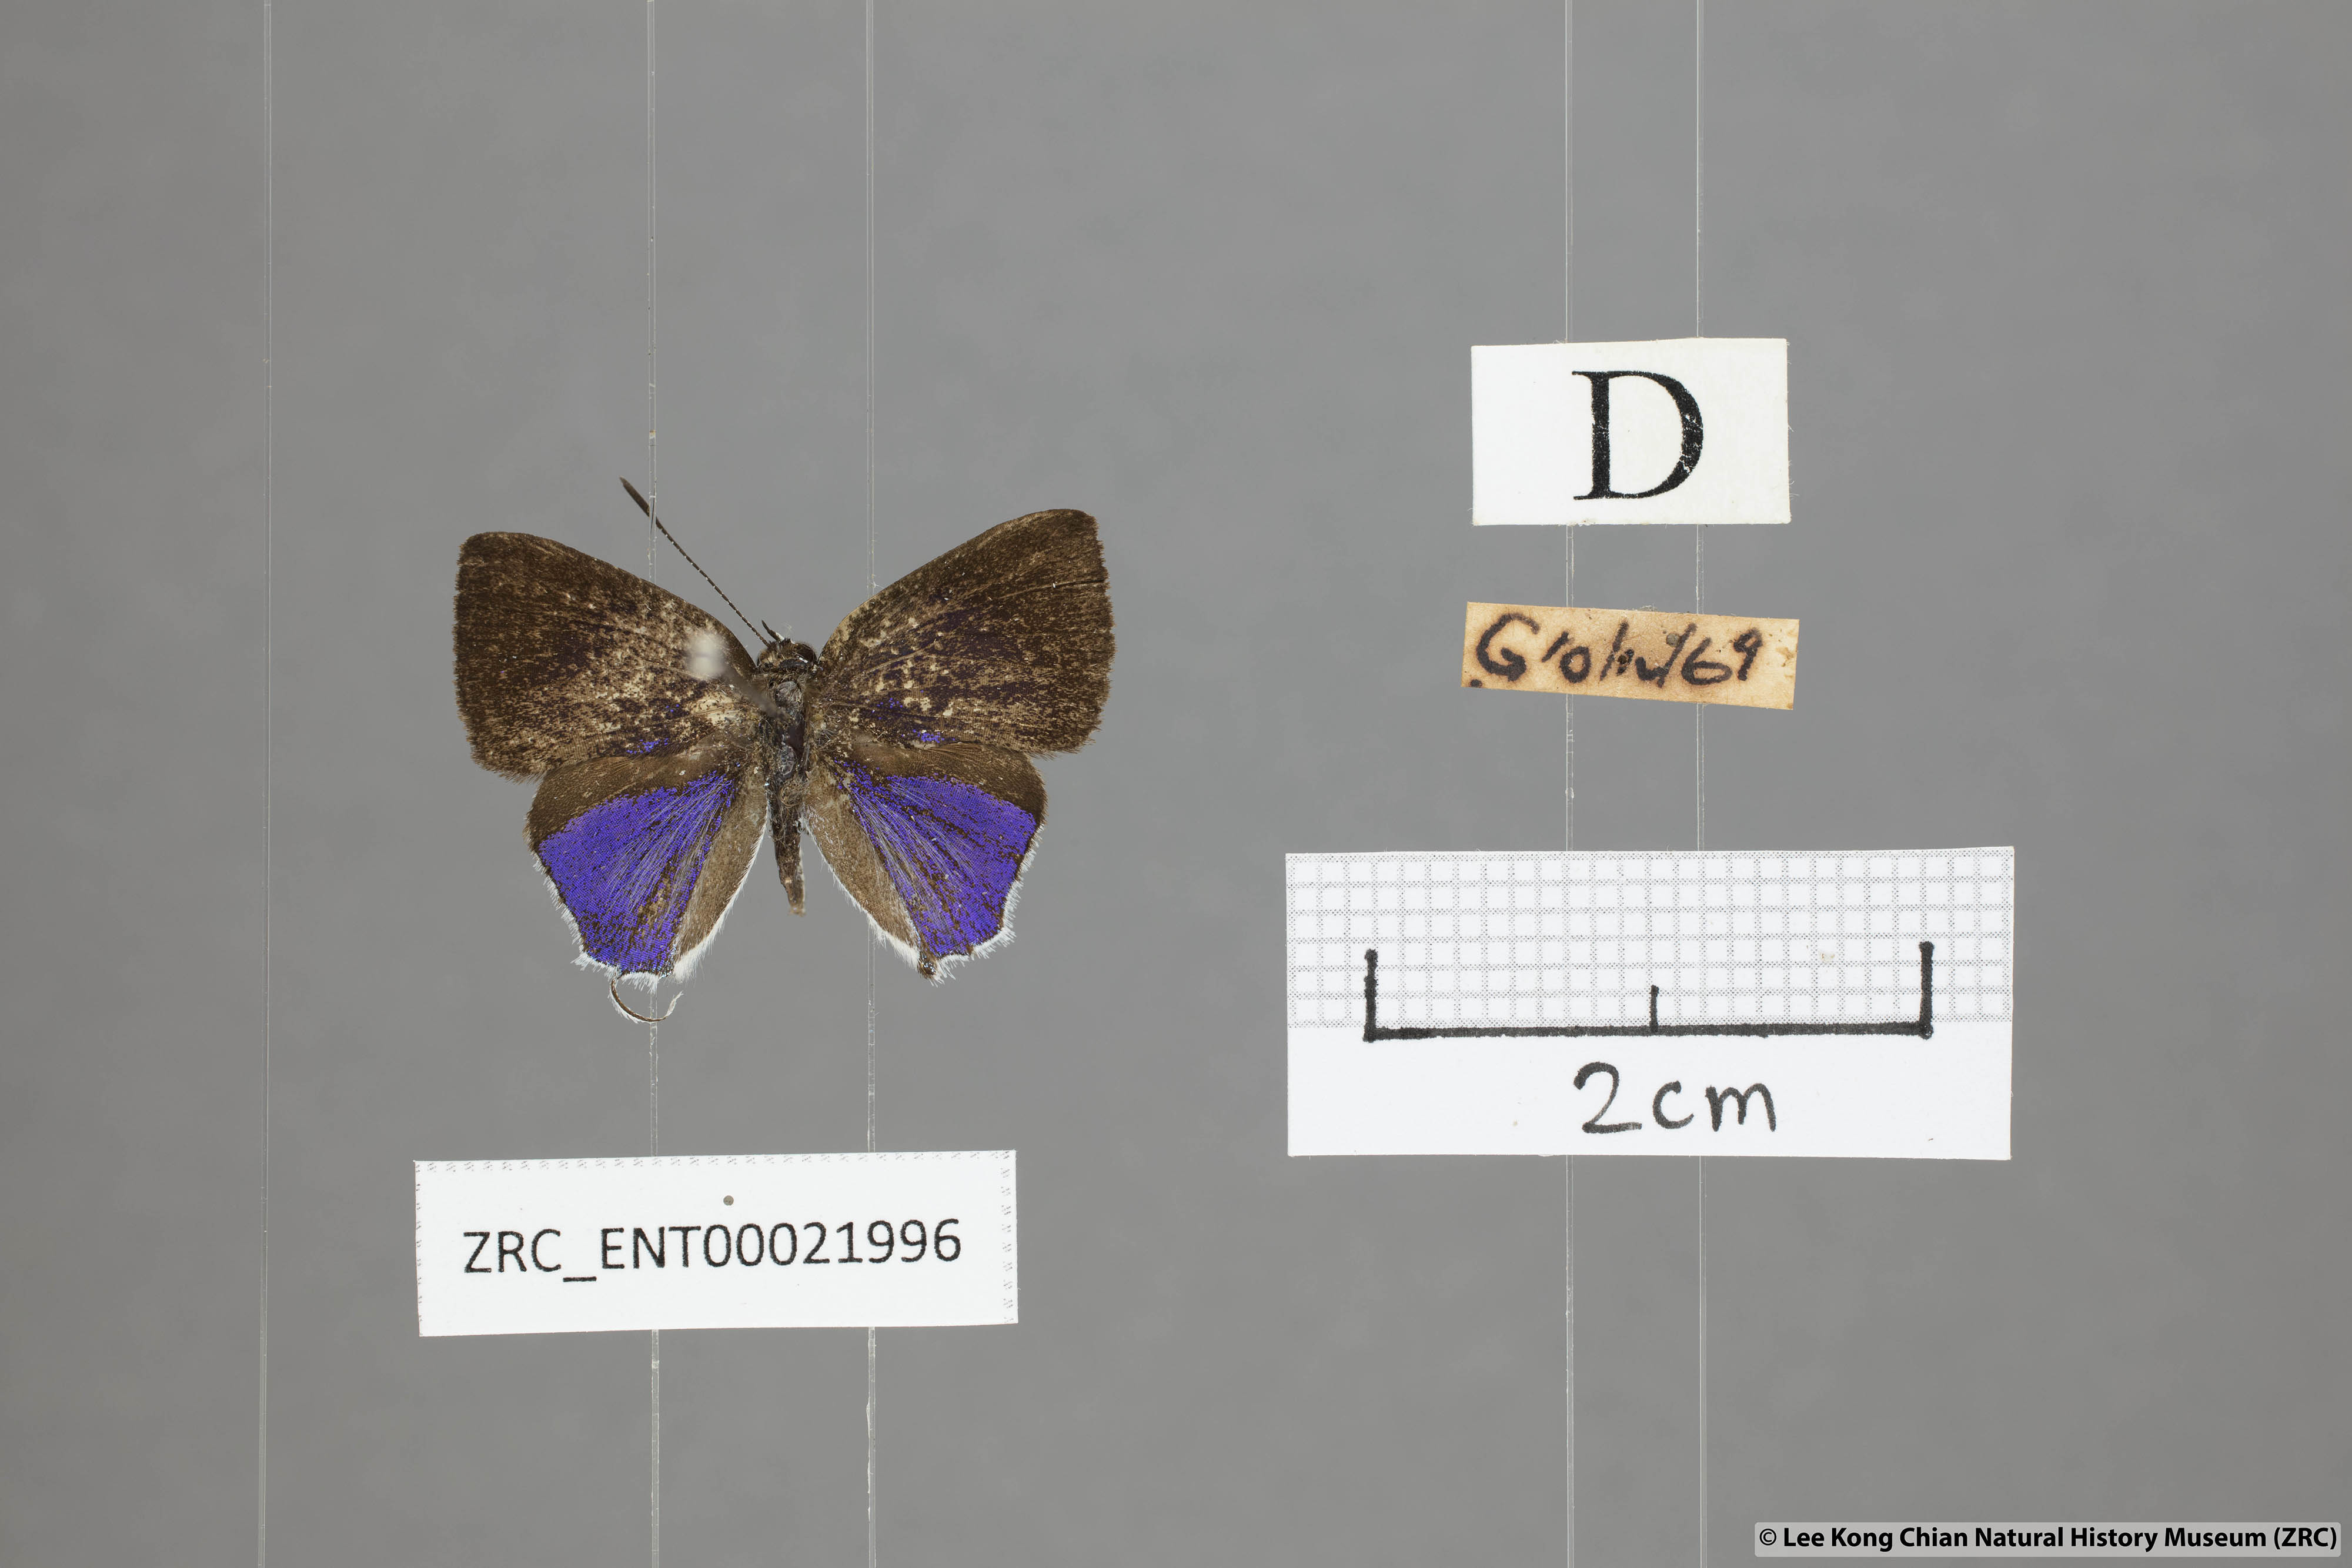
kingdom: Animalia
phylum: Arthropoda
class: Insecta
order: Lepidoptera
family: Lycaenidae
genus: Sinthusa
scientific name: Sinthusa malika
